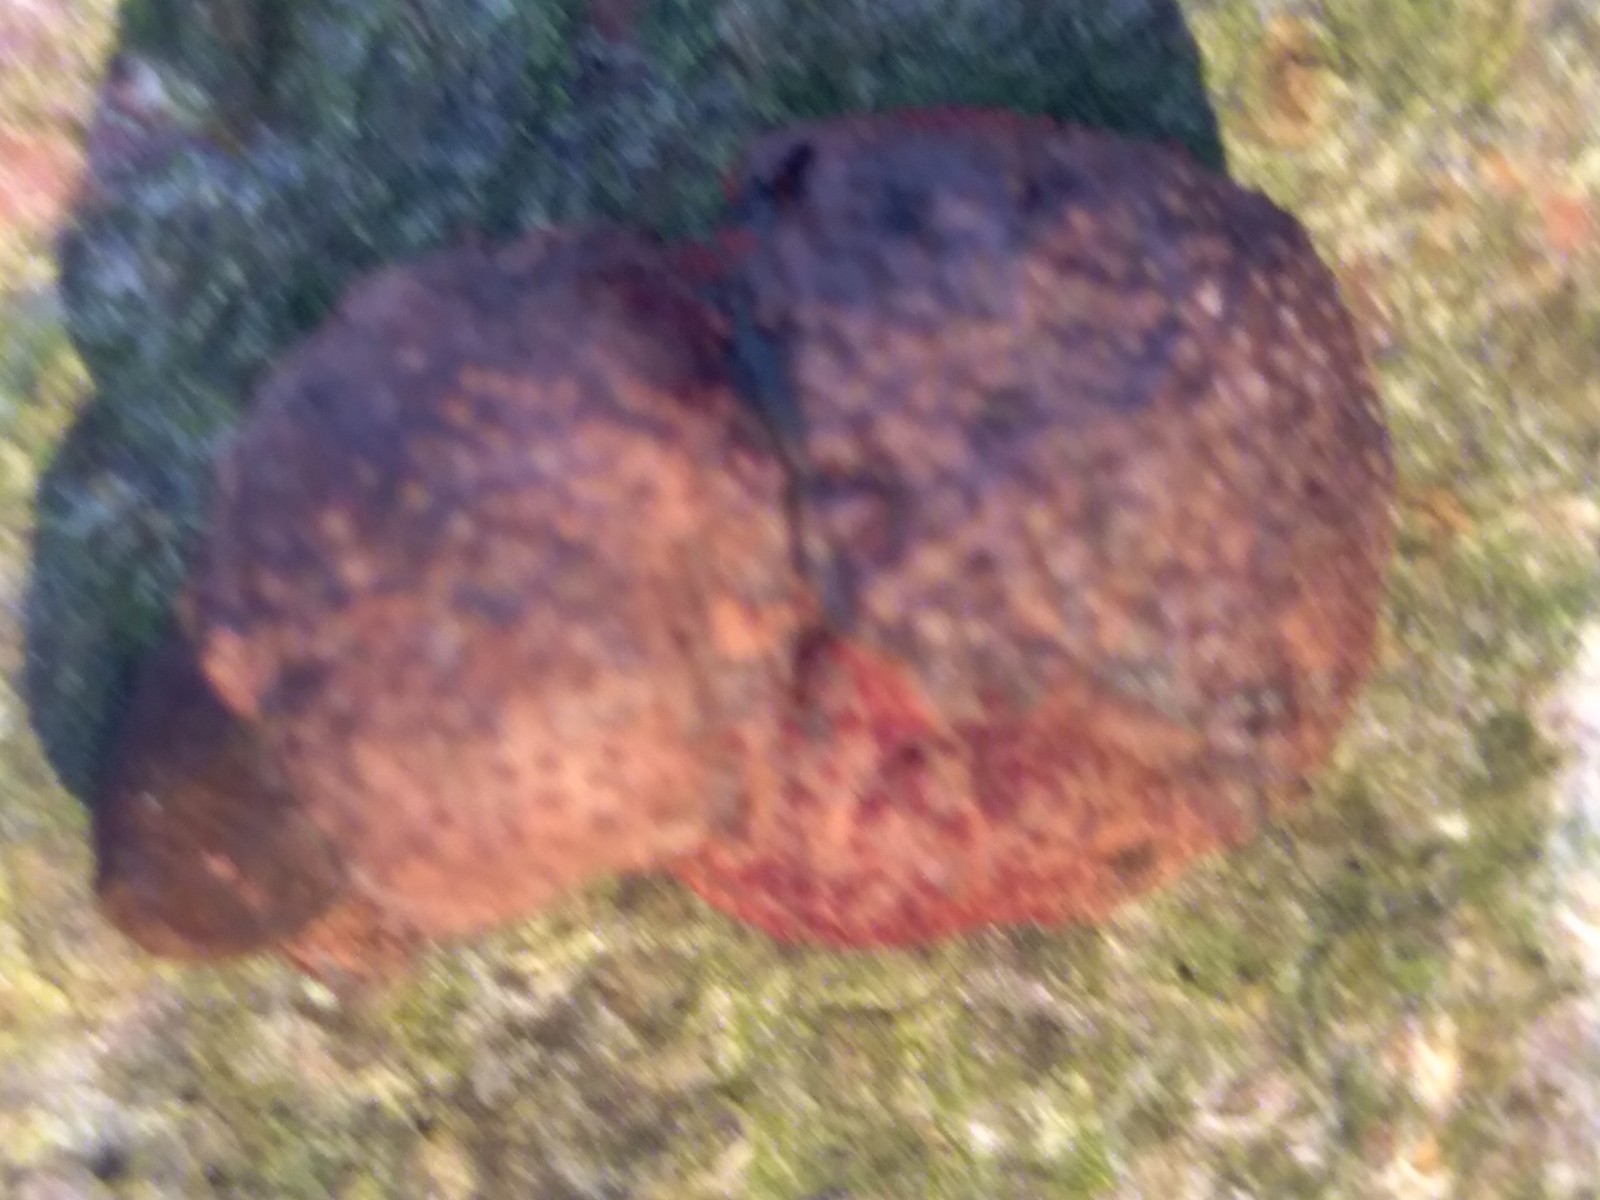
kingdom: Fungi
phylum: Ascomycota
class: Sordariomycetes
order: Xylariales
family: Hypoxylaceae
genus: Hypoxylon
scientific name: Hypoxylon fragiforme
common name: kuljordbær
